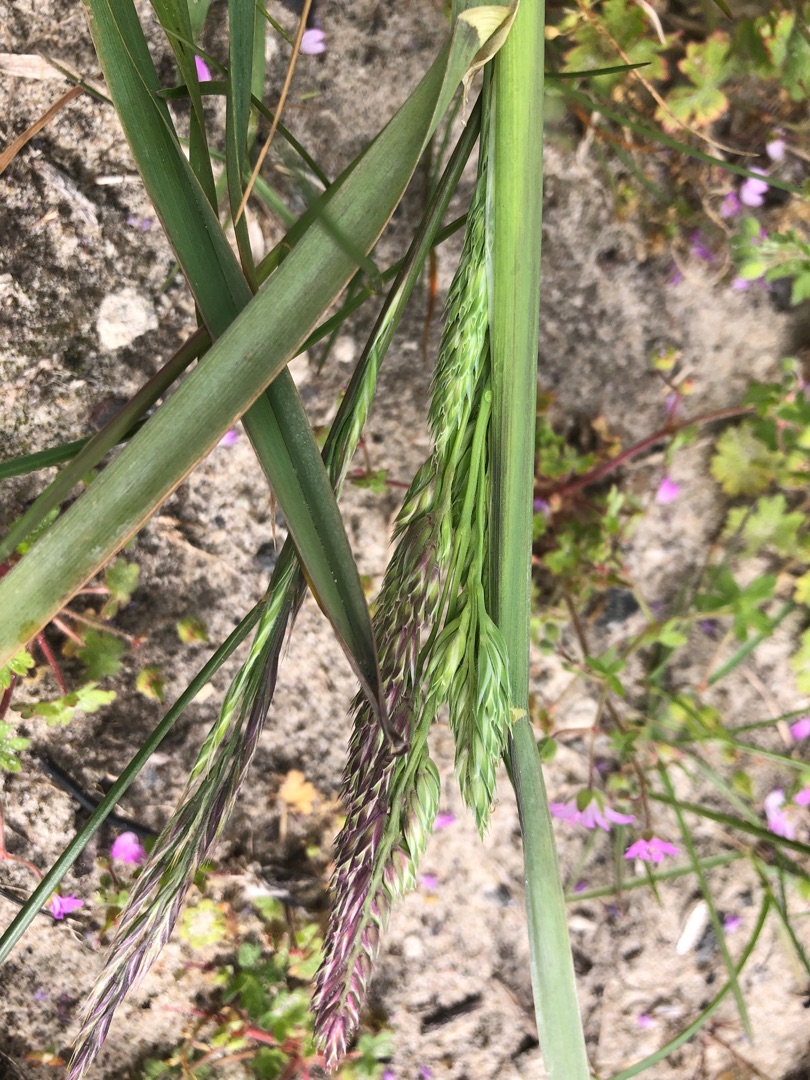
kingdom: Plantae
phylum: Tracheophyta
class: Liliopsida
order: Poales
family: Poaceae
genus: Dactylis
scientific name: Dactylis glomerata
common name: Almindelig hundegræs
